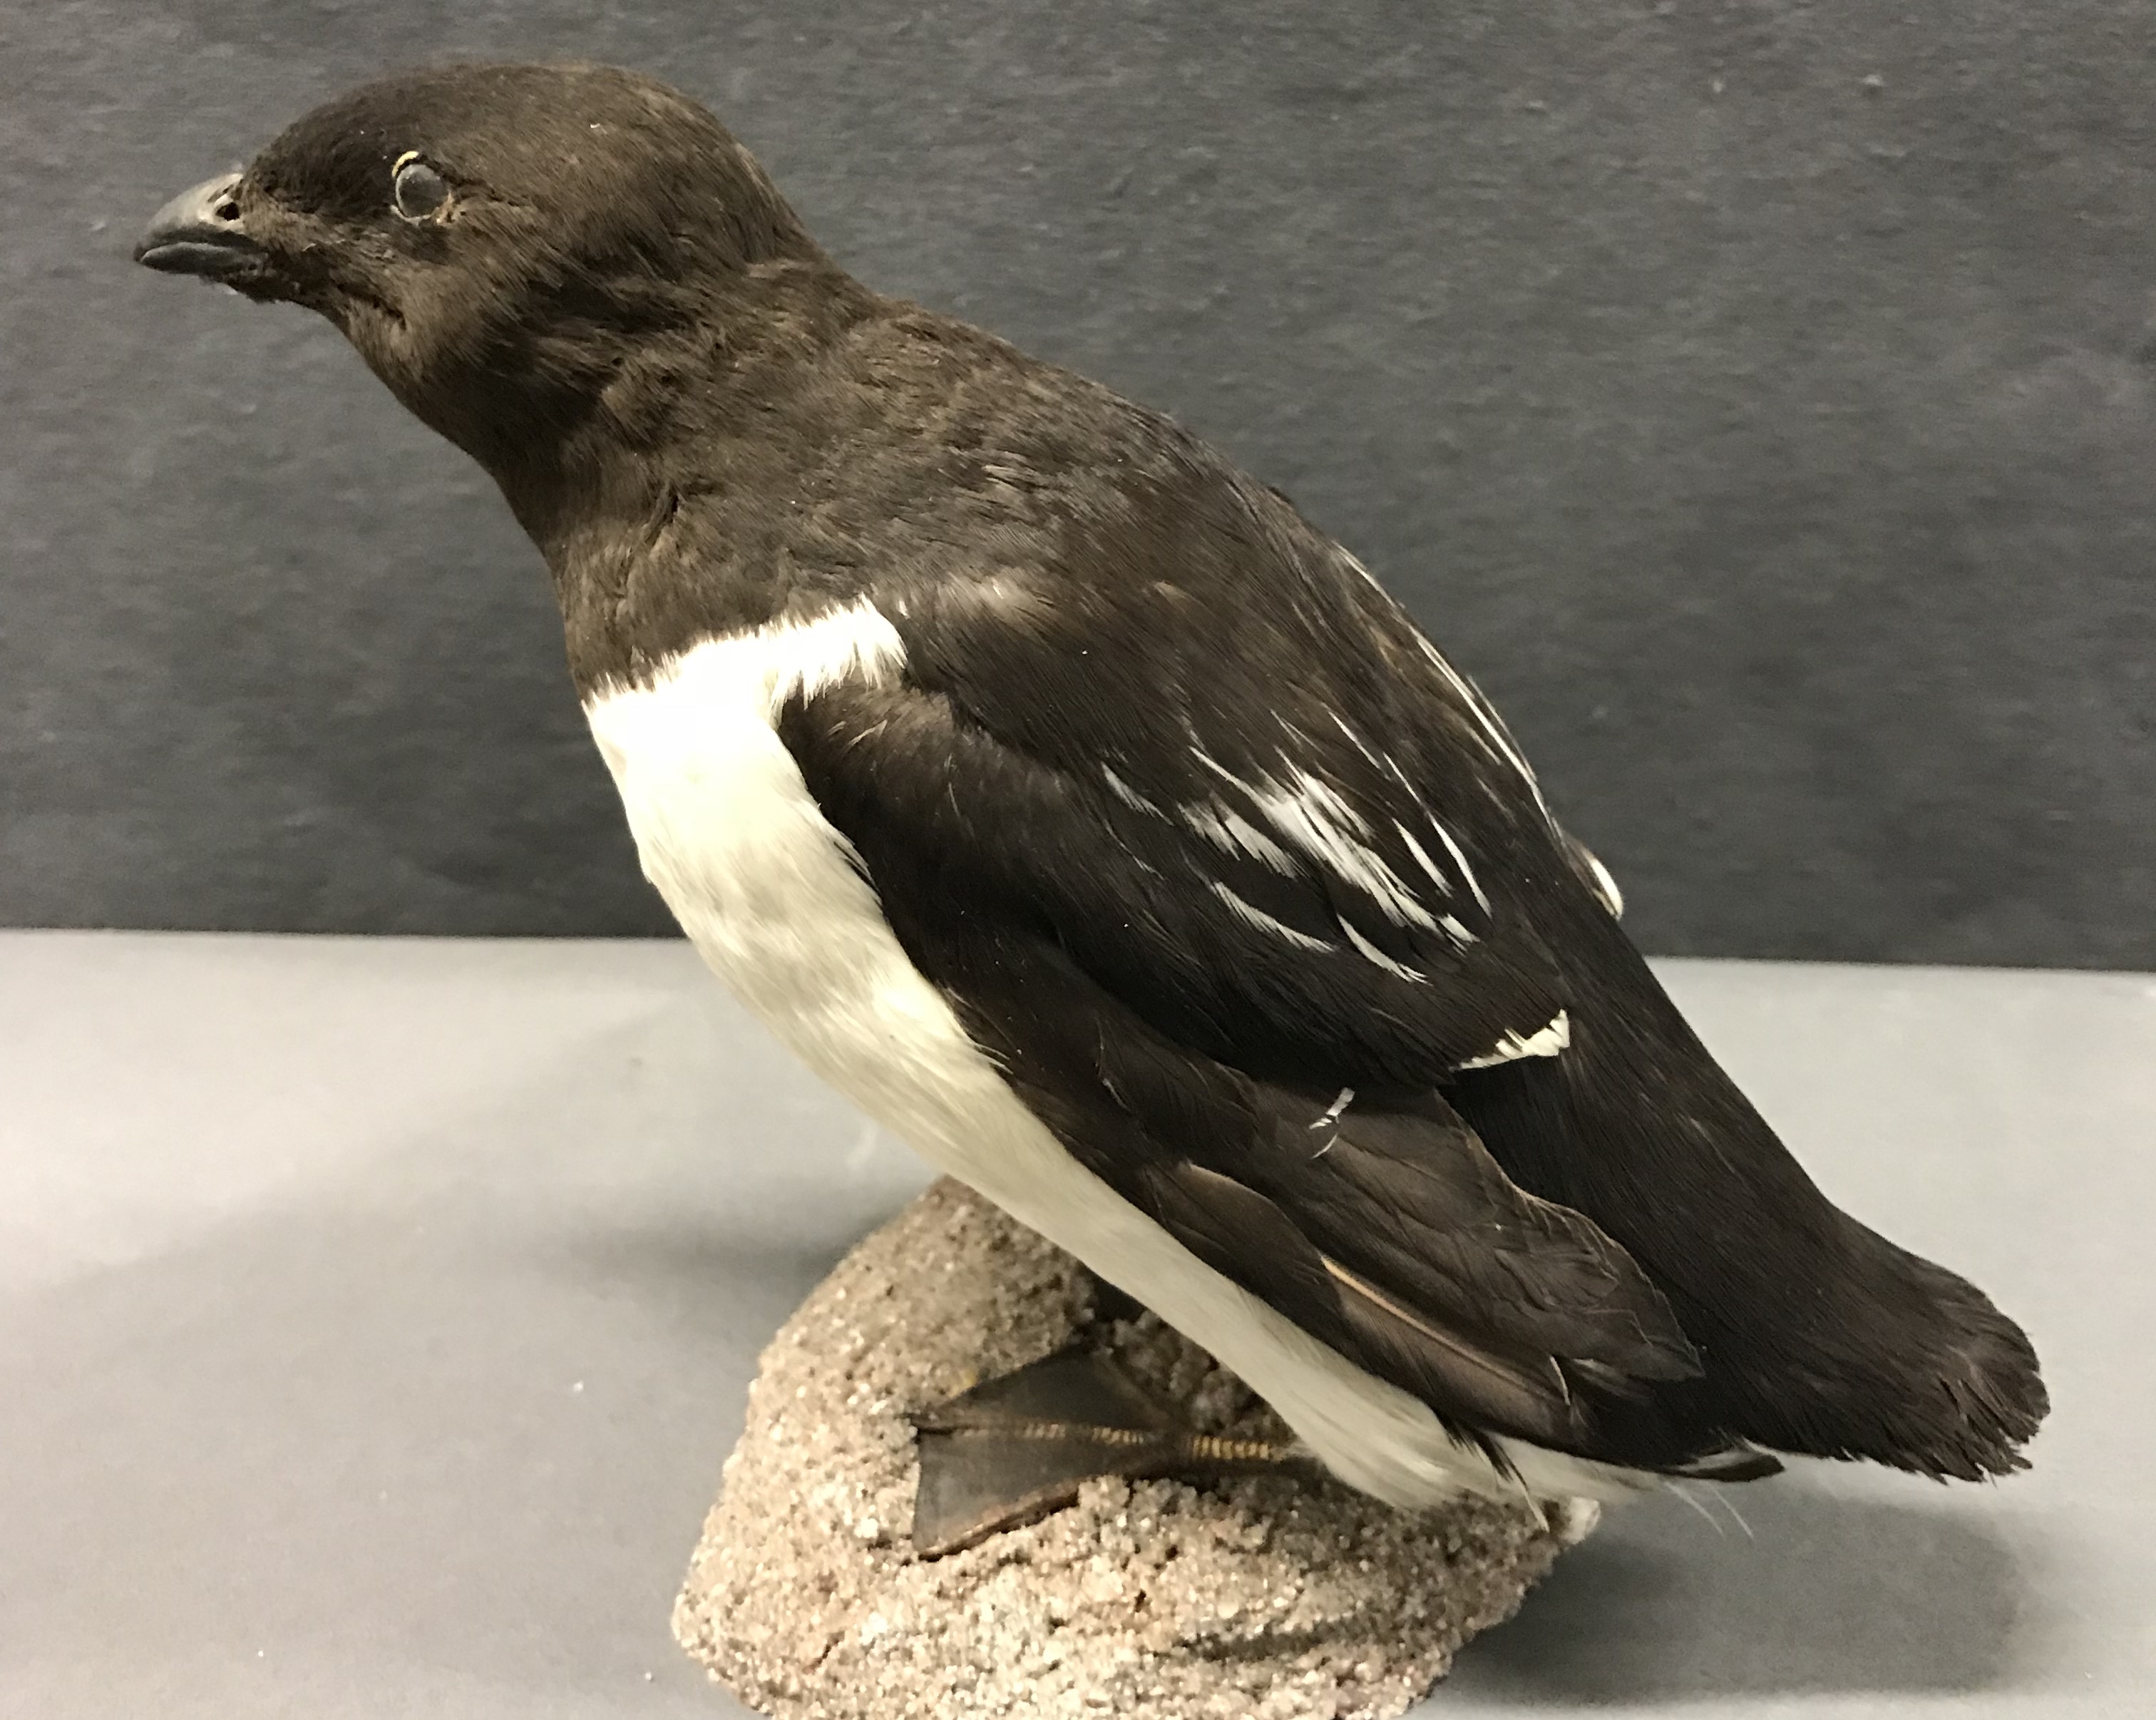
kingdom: Animalia
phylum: Chordata
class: Aves
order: Charadriiformes
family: Alcidae
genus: Alle
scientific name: Alle alle
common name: Little auk
